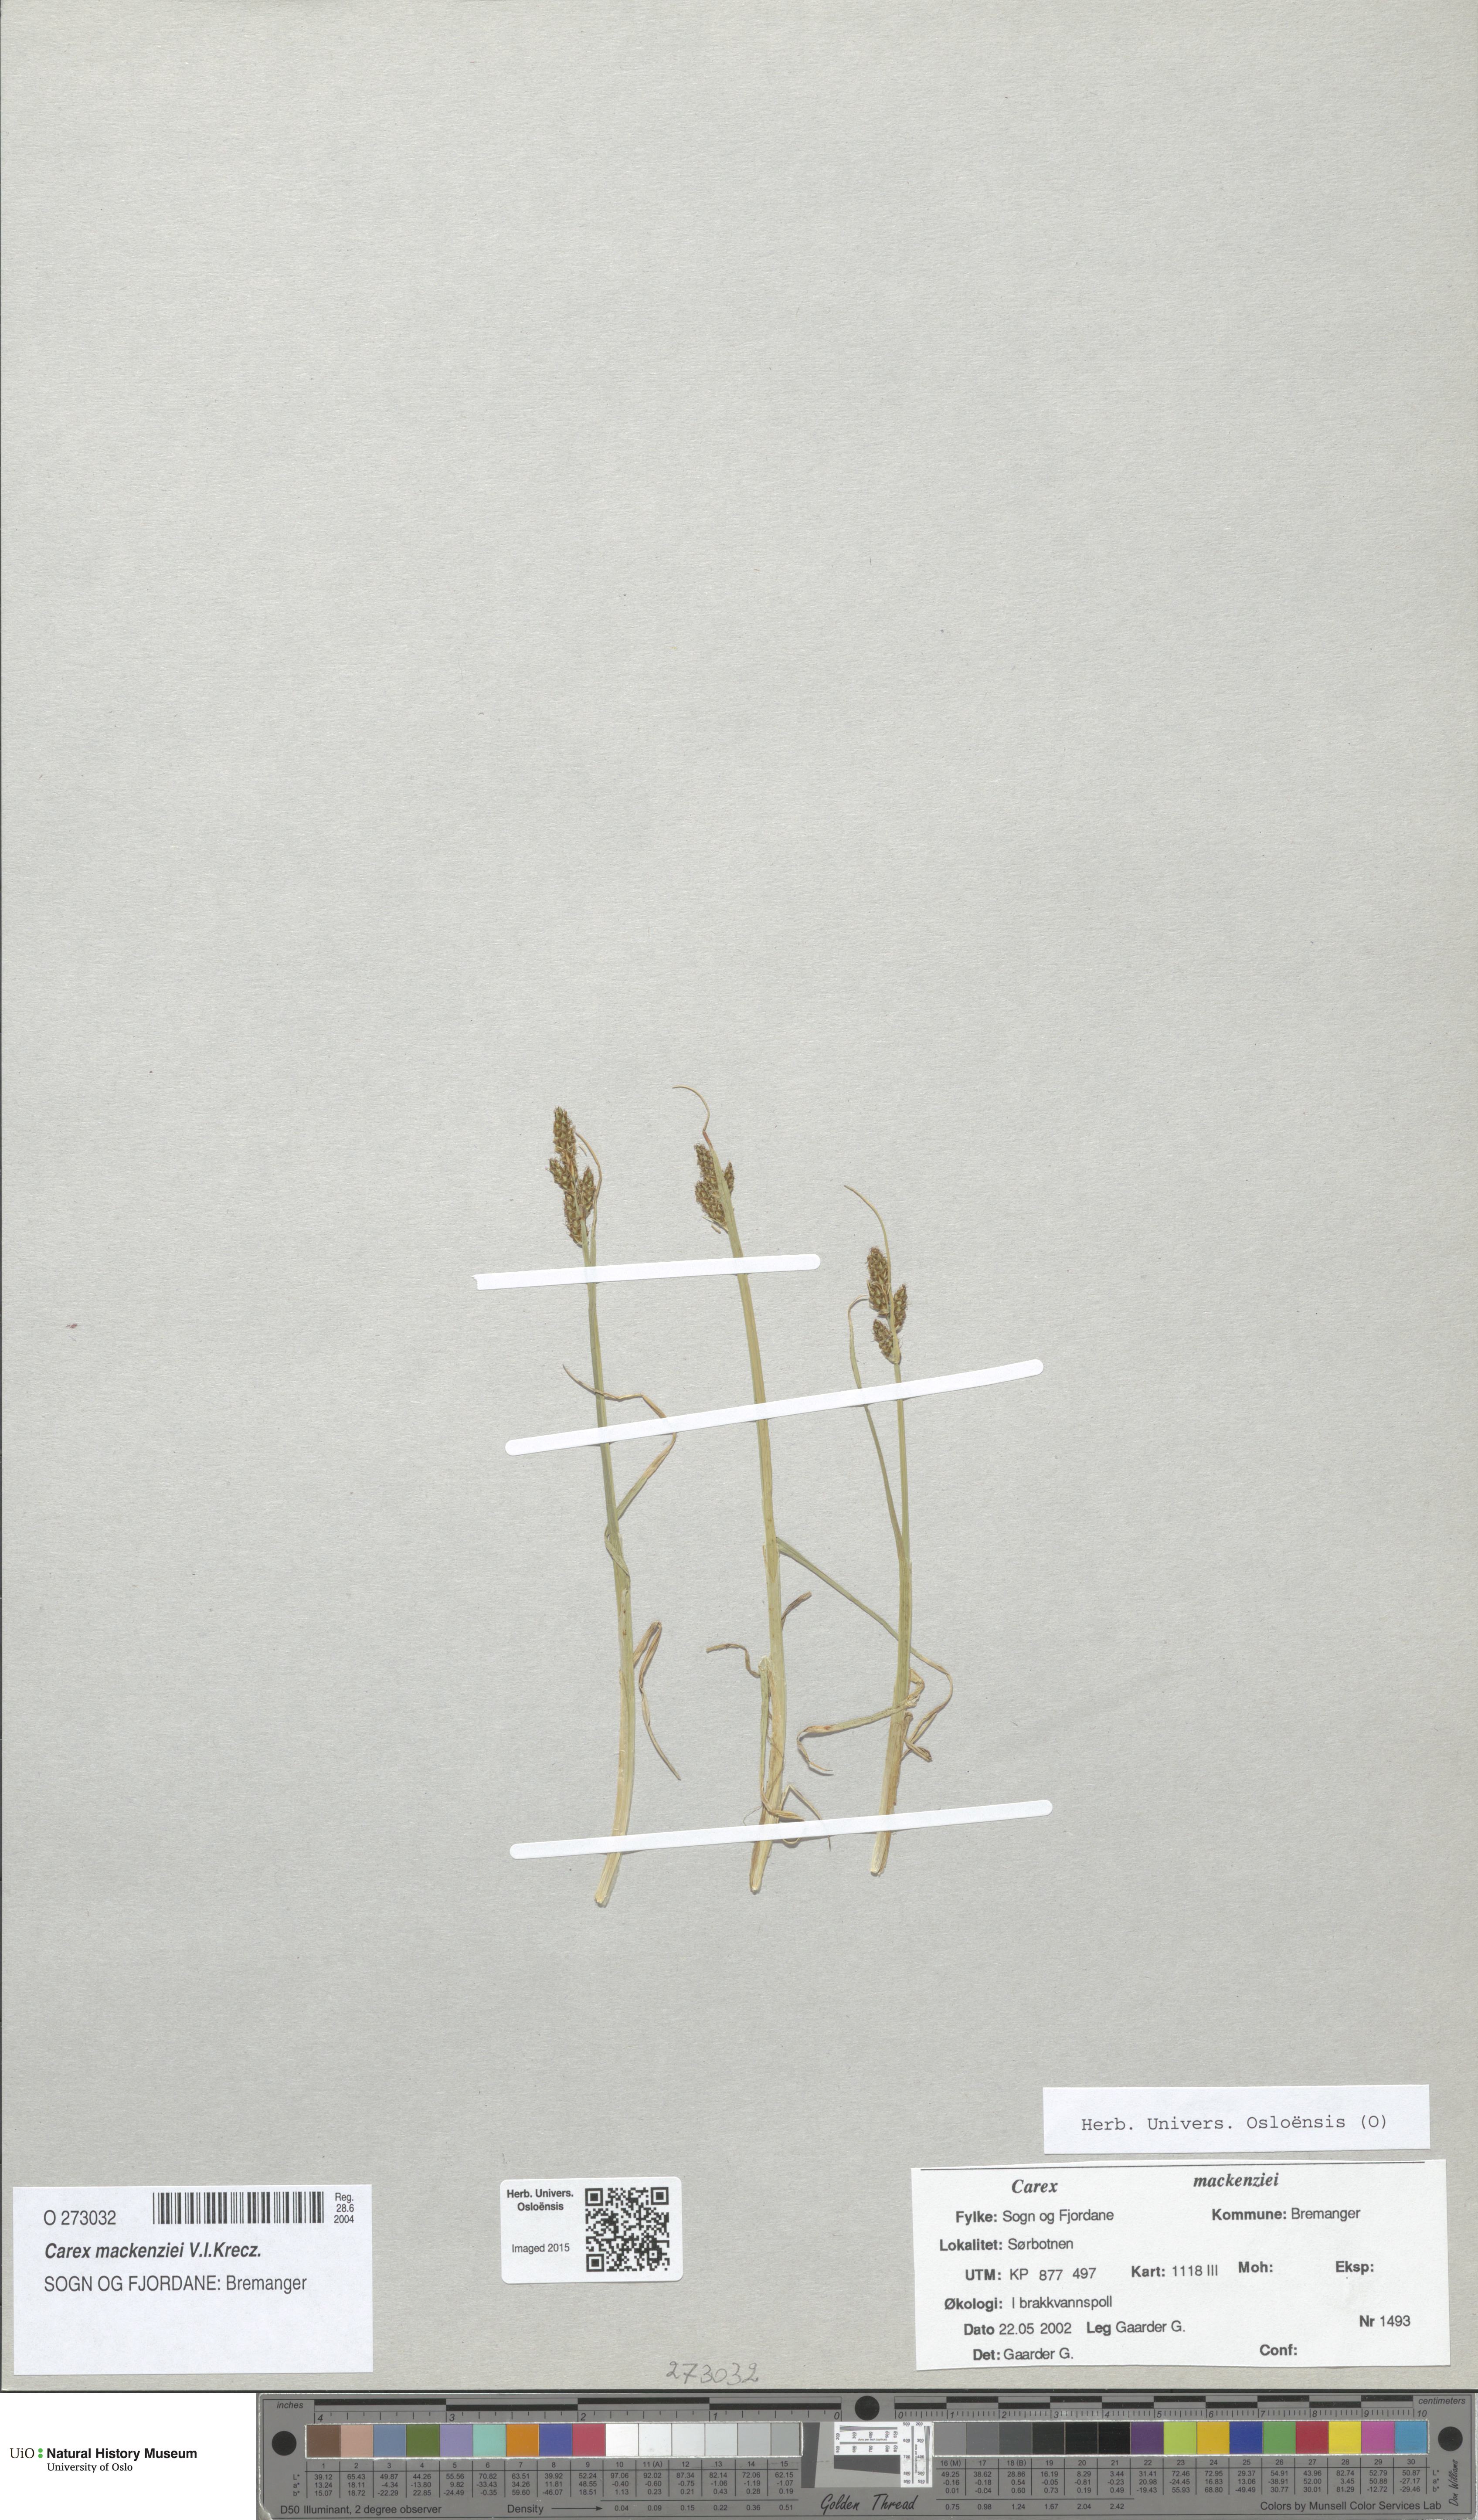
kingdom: Plantae
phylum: Tracheophyta
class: Liliopsida
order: Poales
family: Cyperaceae
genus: Carex
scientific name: Carex mackenziei
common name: Mackenzie's sedge
